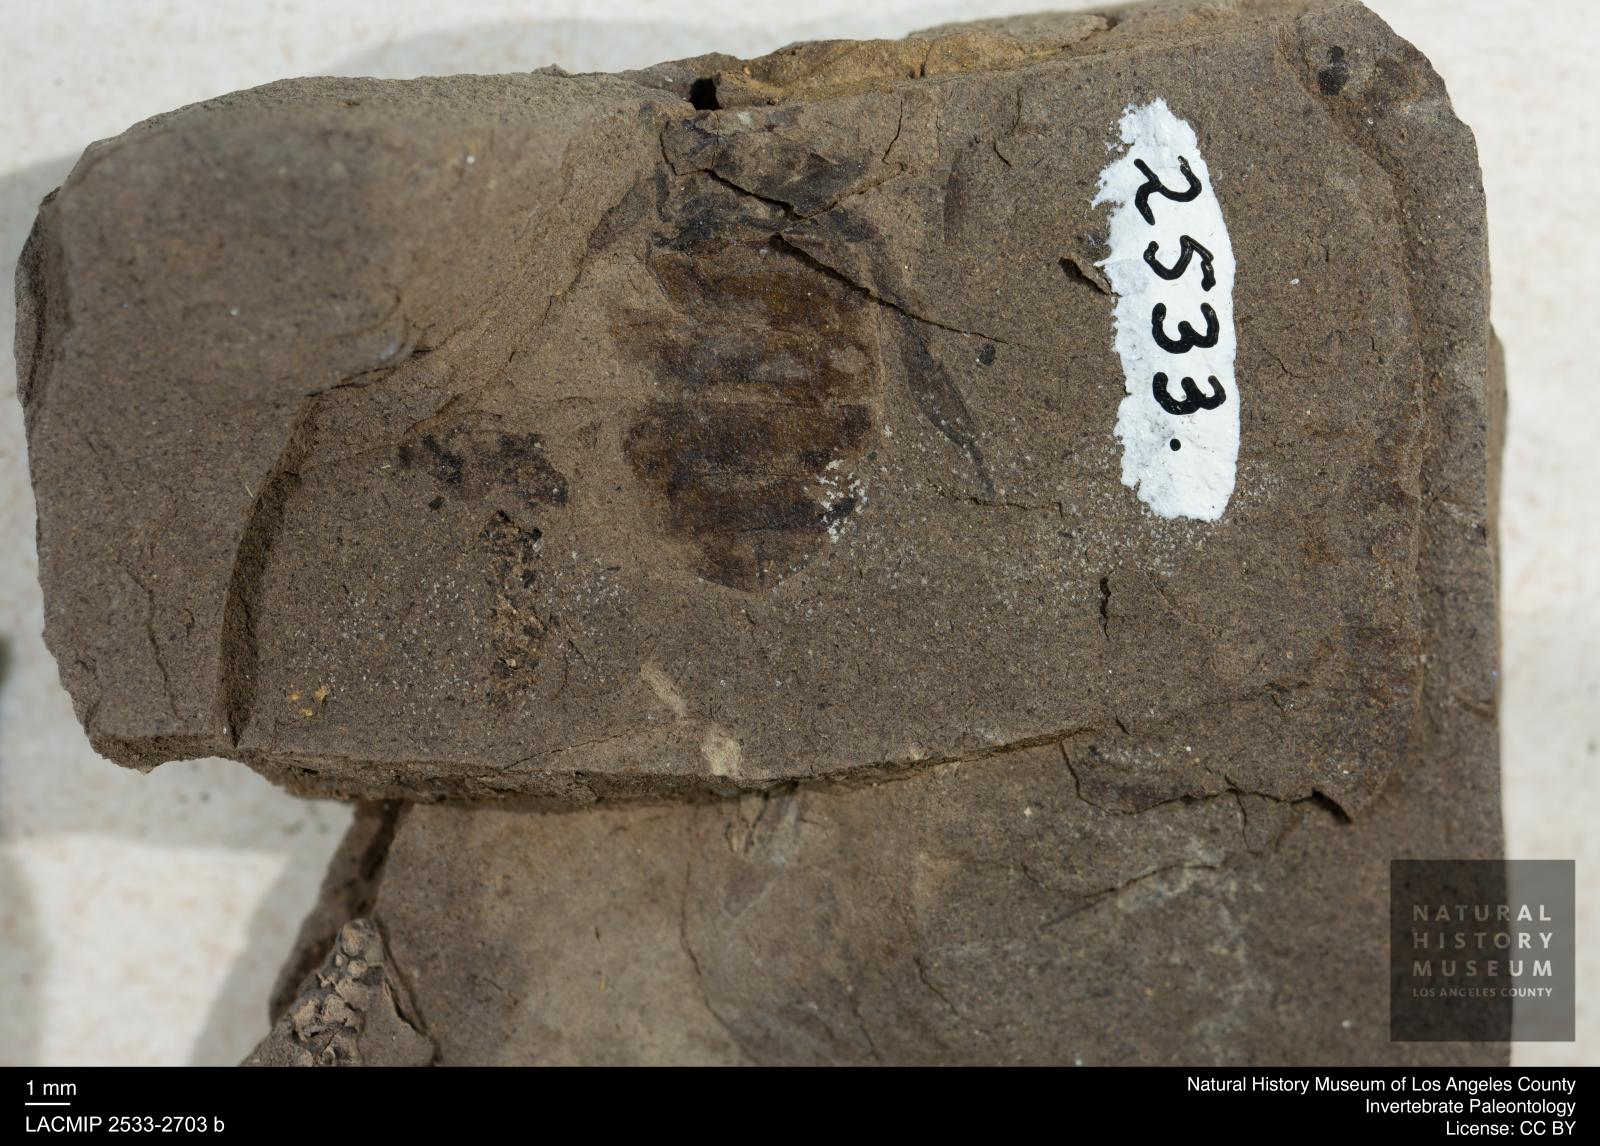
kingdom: Animalia
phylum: Arthropoda
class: Insecta
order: Hymenoptera
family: Apidae
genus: Apis
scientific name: Apis henshawi
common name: Henshaw's honey bee
